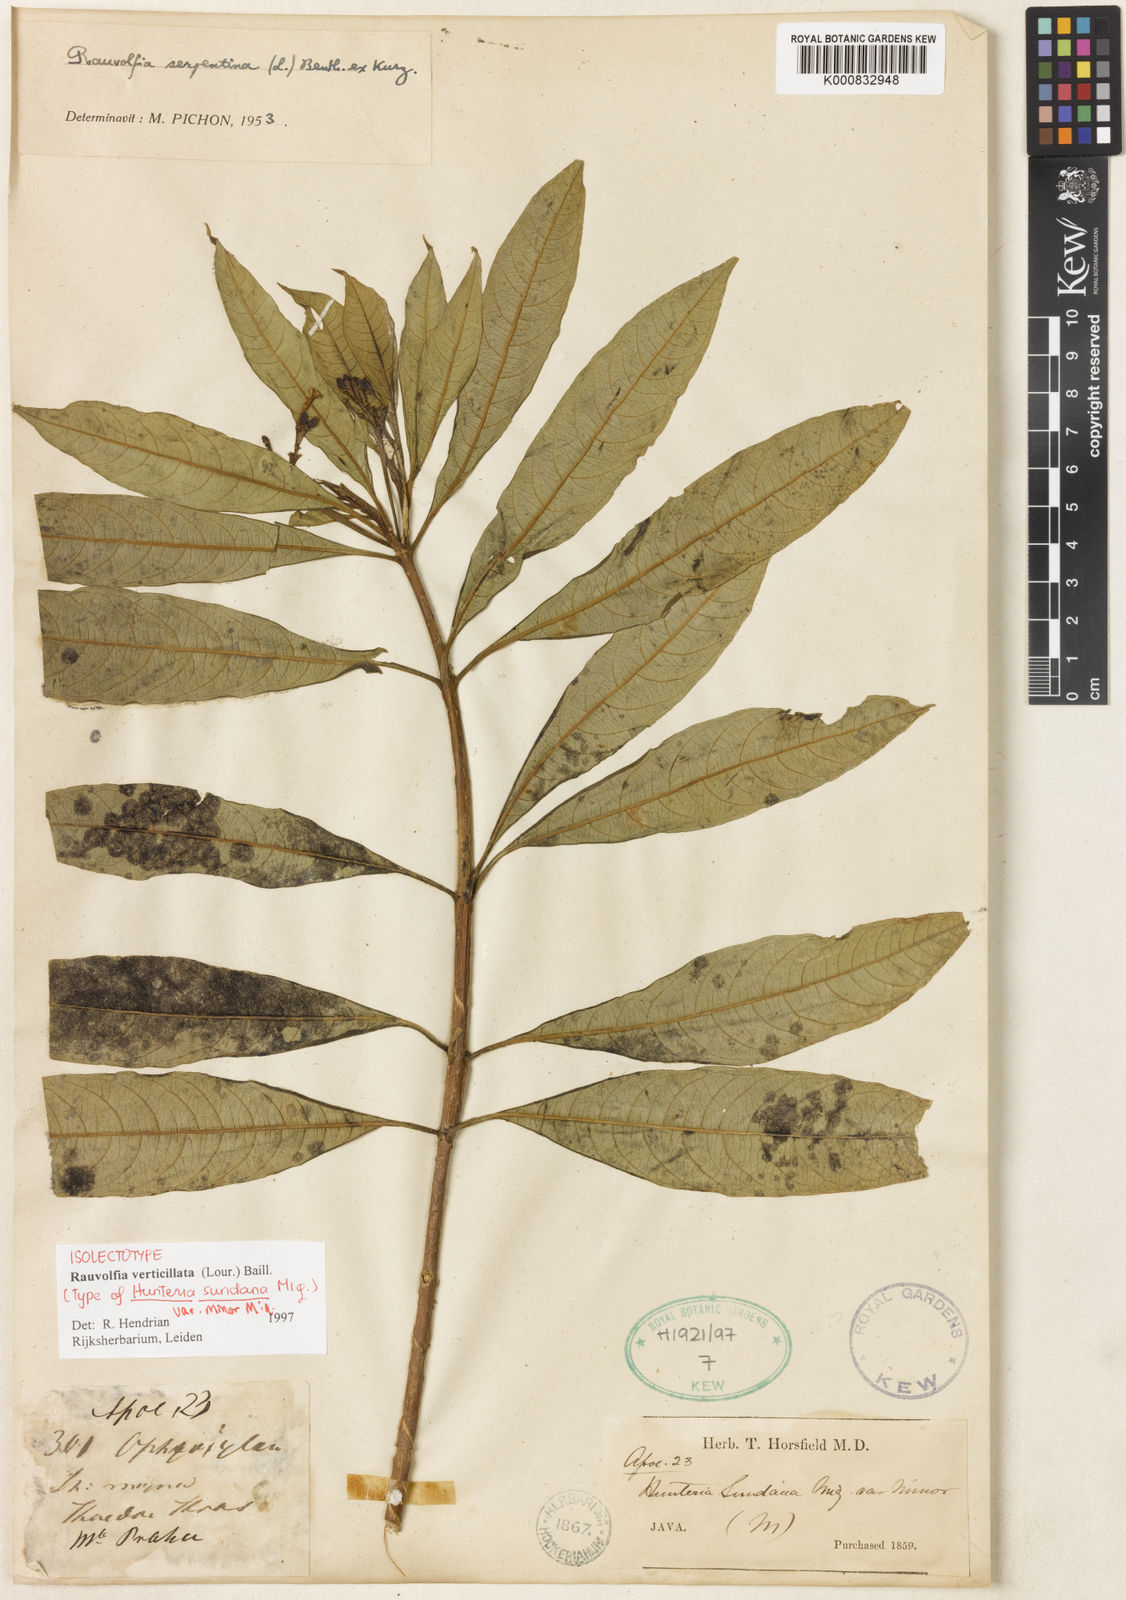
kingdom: Plantae
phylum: Tracheophyta
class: Magnoliopsida
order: Gentianales
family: Apocynaceae
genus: Rauvolfia
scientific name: Rauvolfia verticillata
